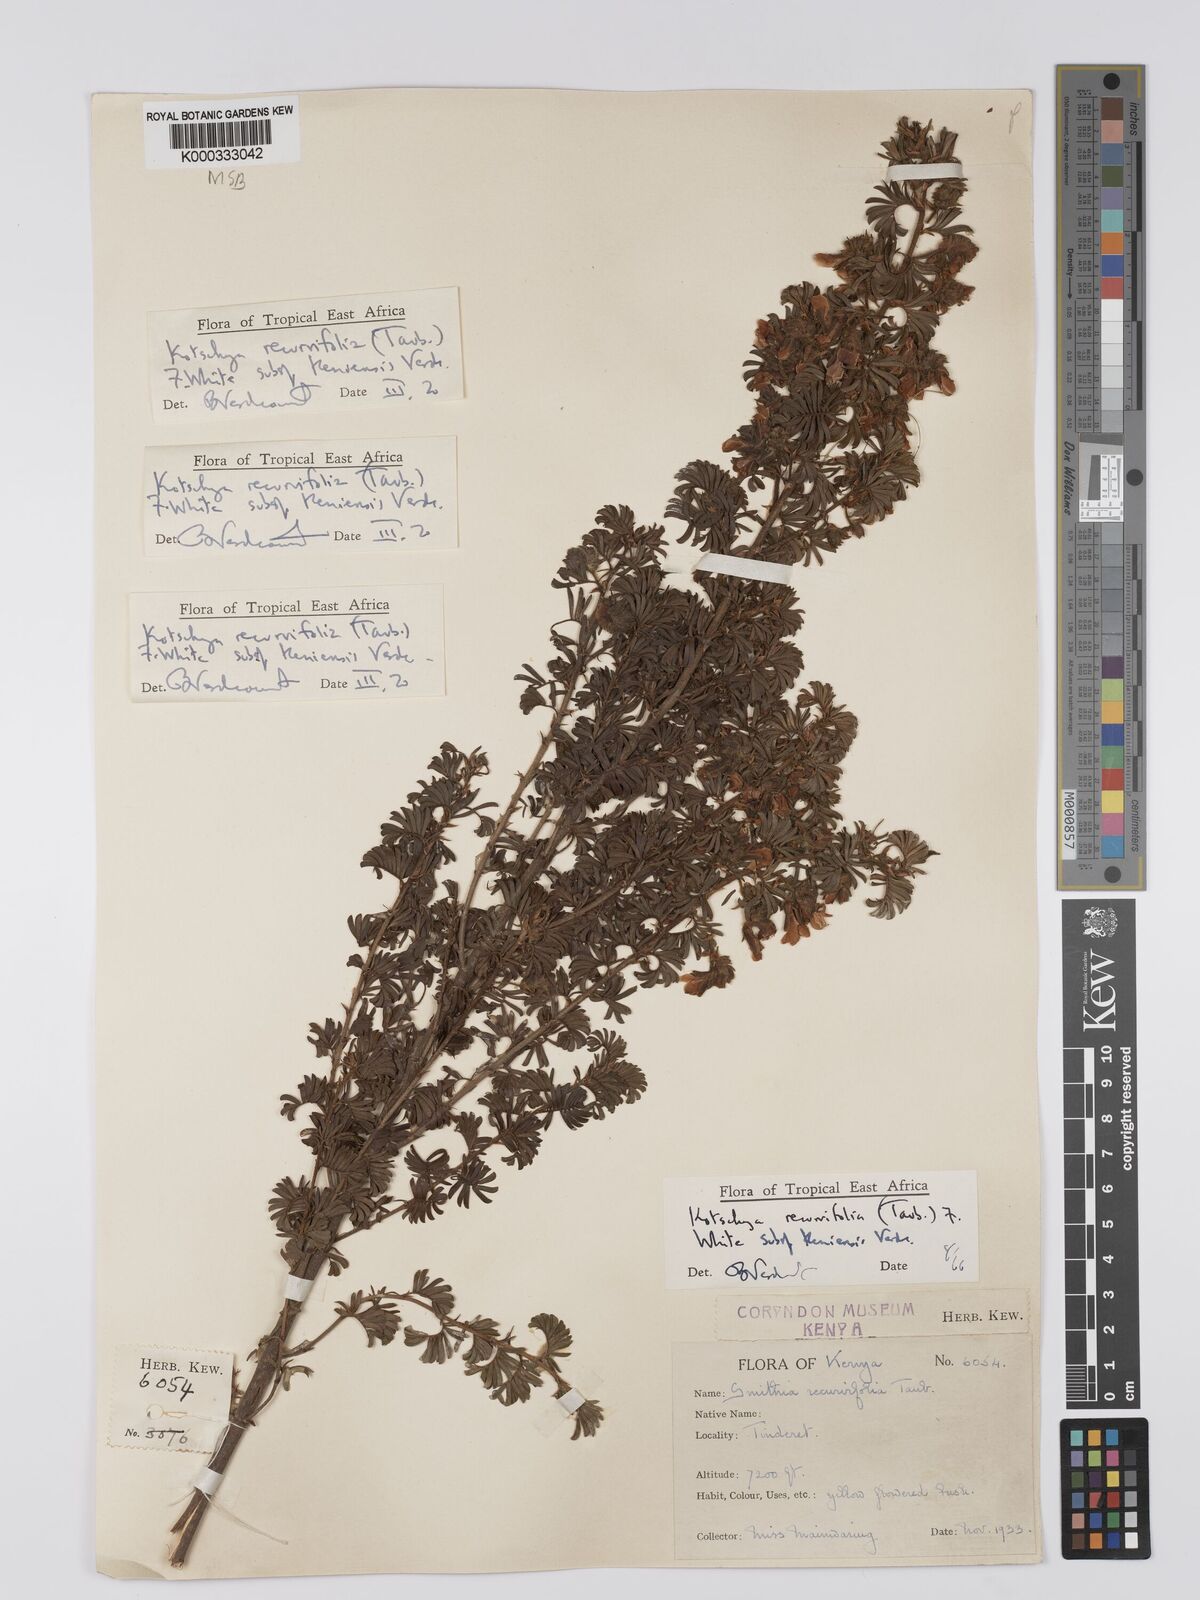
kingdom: Plantae
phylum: Tracheophyta
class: Magnoliopsida
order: Fabales
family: Fabaceae
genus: Kotschya
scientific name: Kotschya recurvifolia
